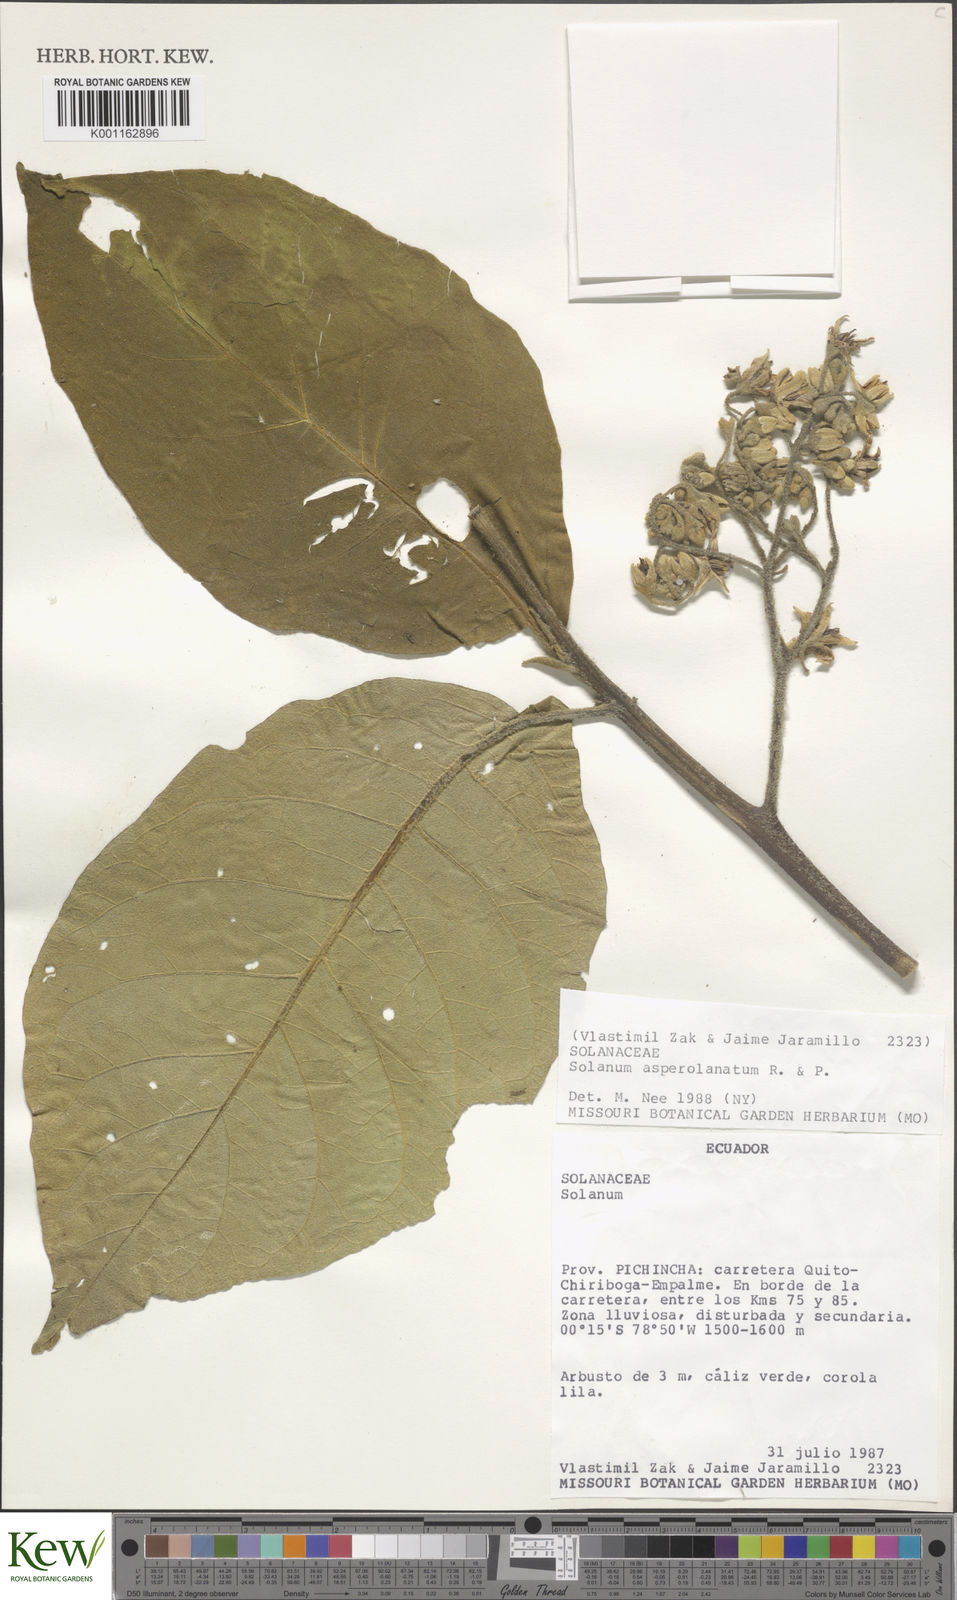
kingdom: Plantae
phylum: Tracheophyta
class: Magnoliopsida
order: Solanales
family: Solanaceae
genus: Solanum
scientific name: Solanum asperolanatum
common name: Devil's-fig
